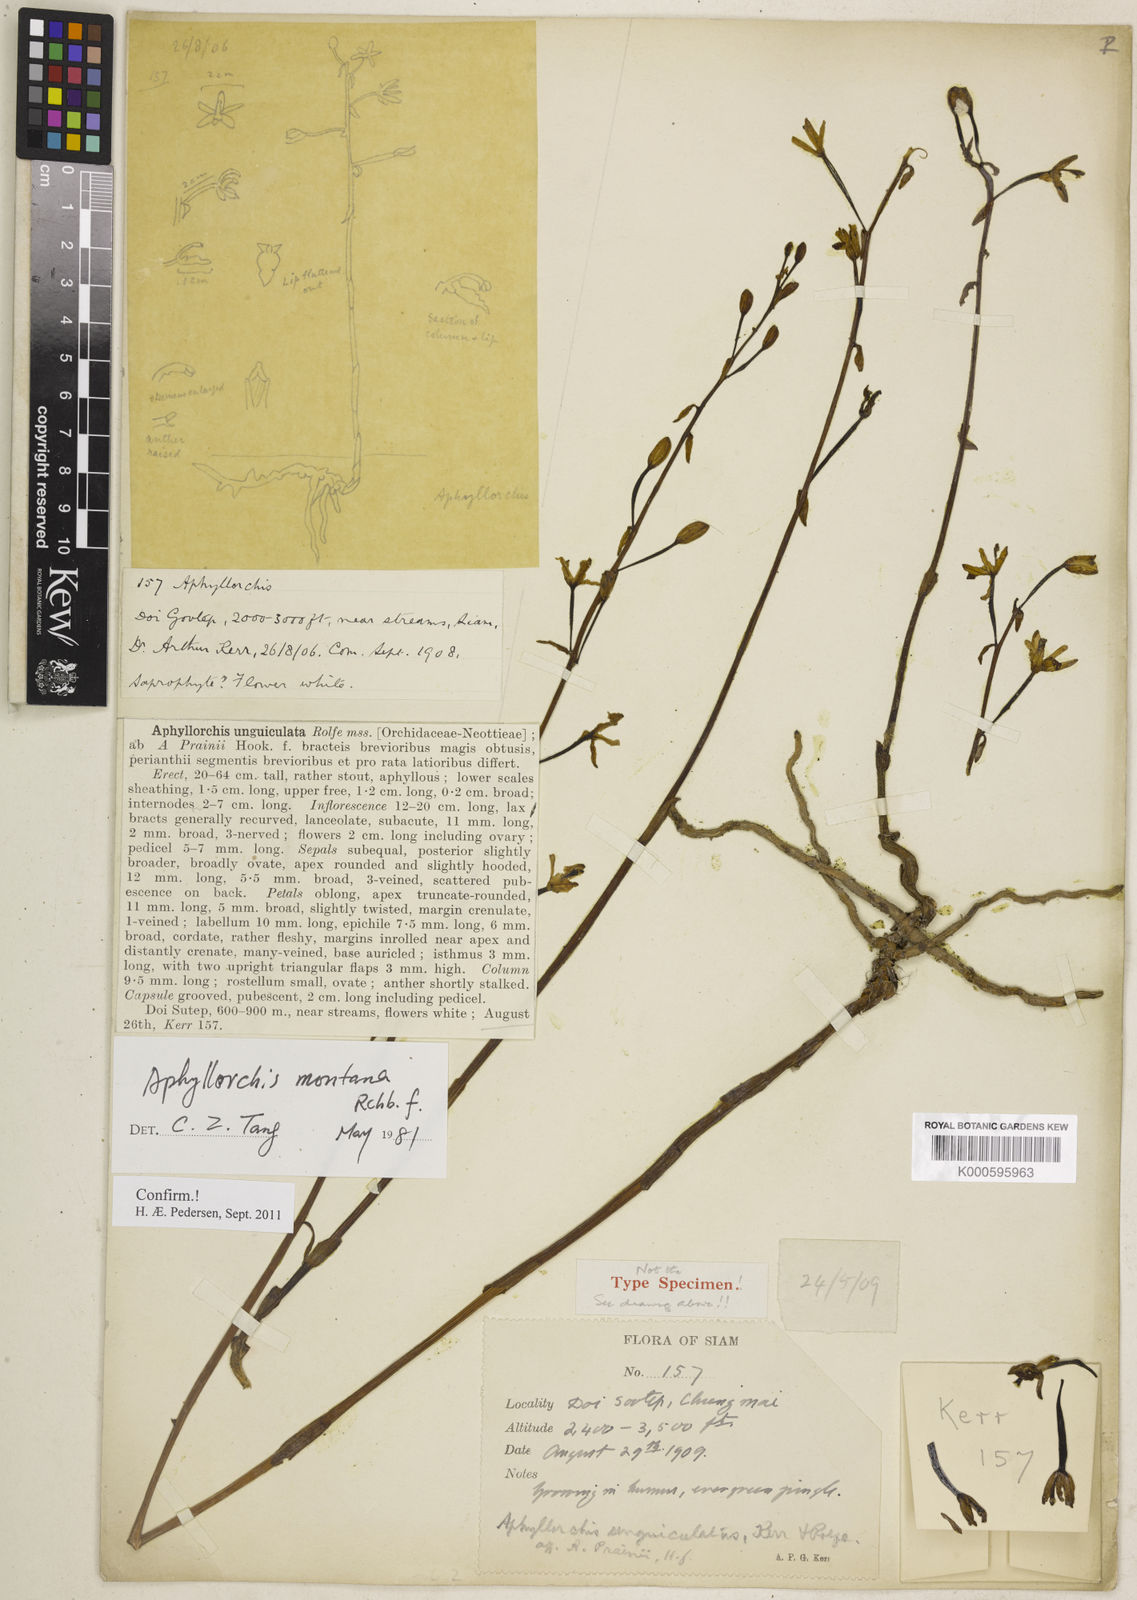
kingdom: Plantae
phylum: Tracheophyta
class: Liliopsida
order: Asparagales
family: Orchidaceae
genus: Aphyllorchis
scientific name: Aphyllorchis montana
